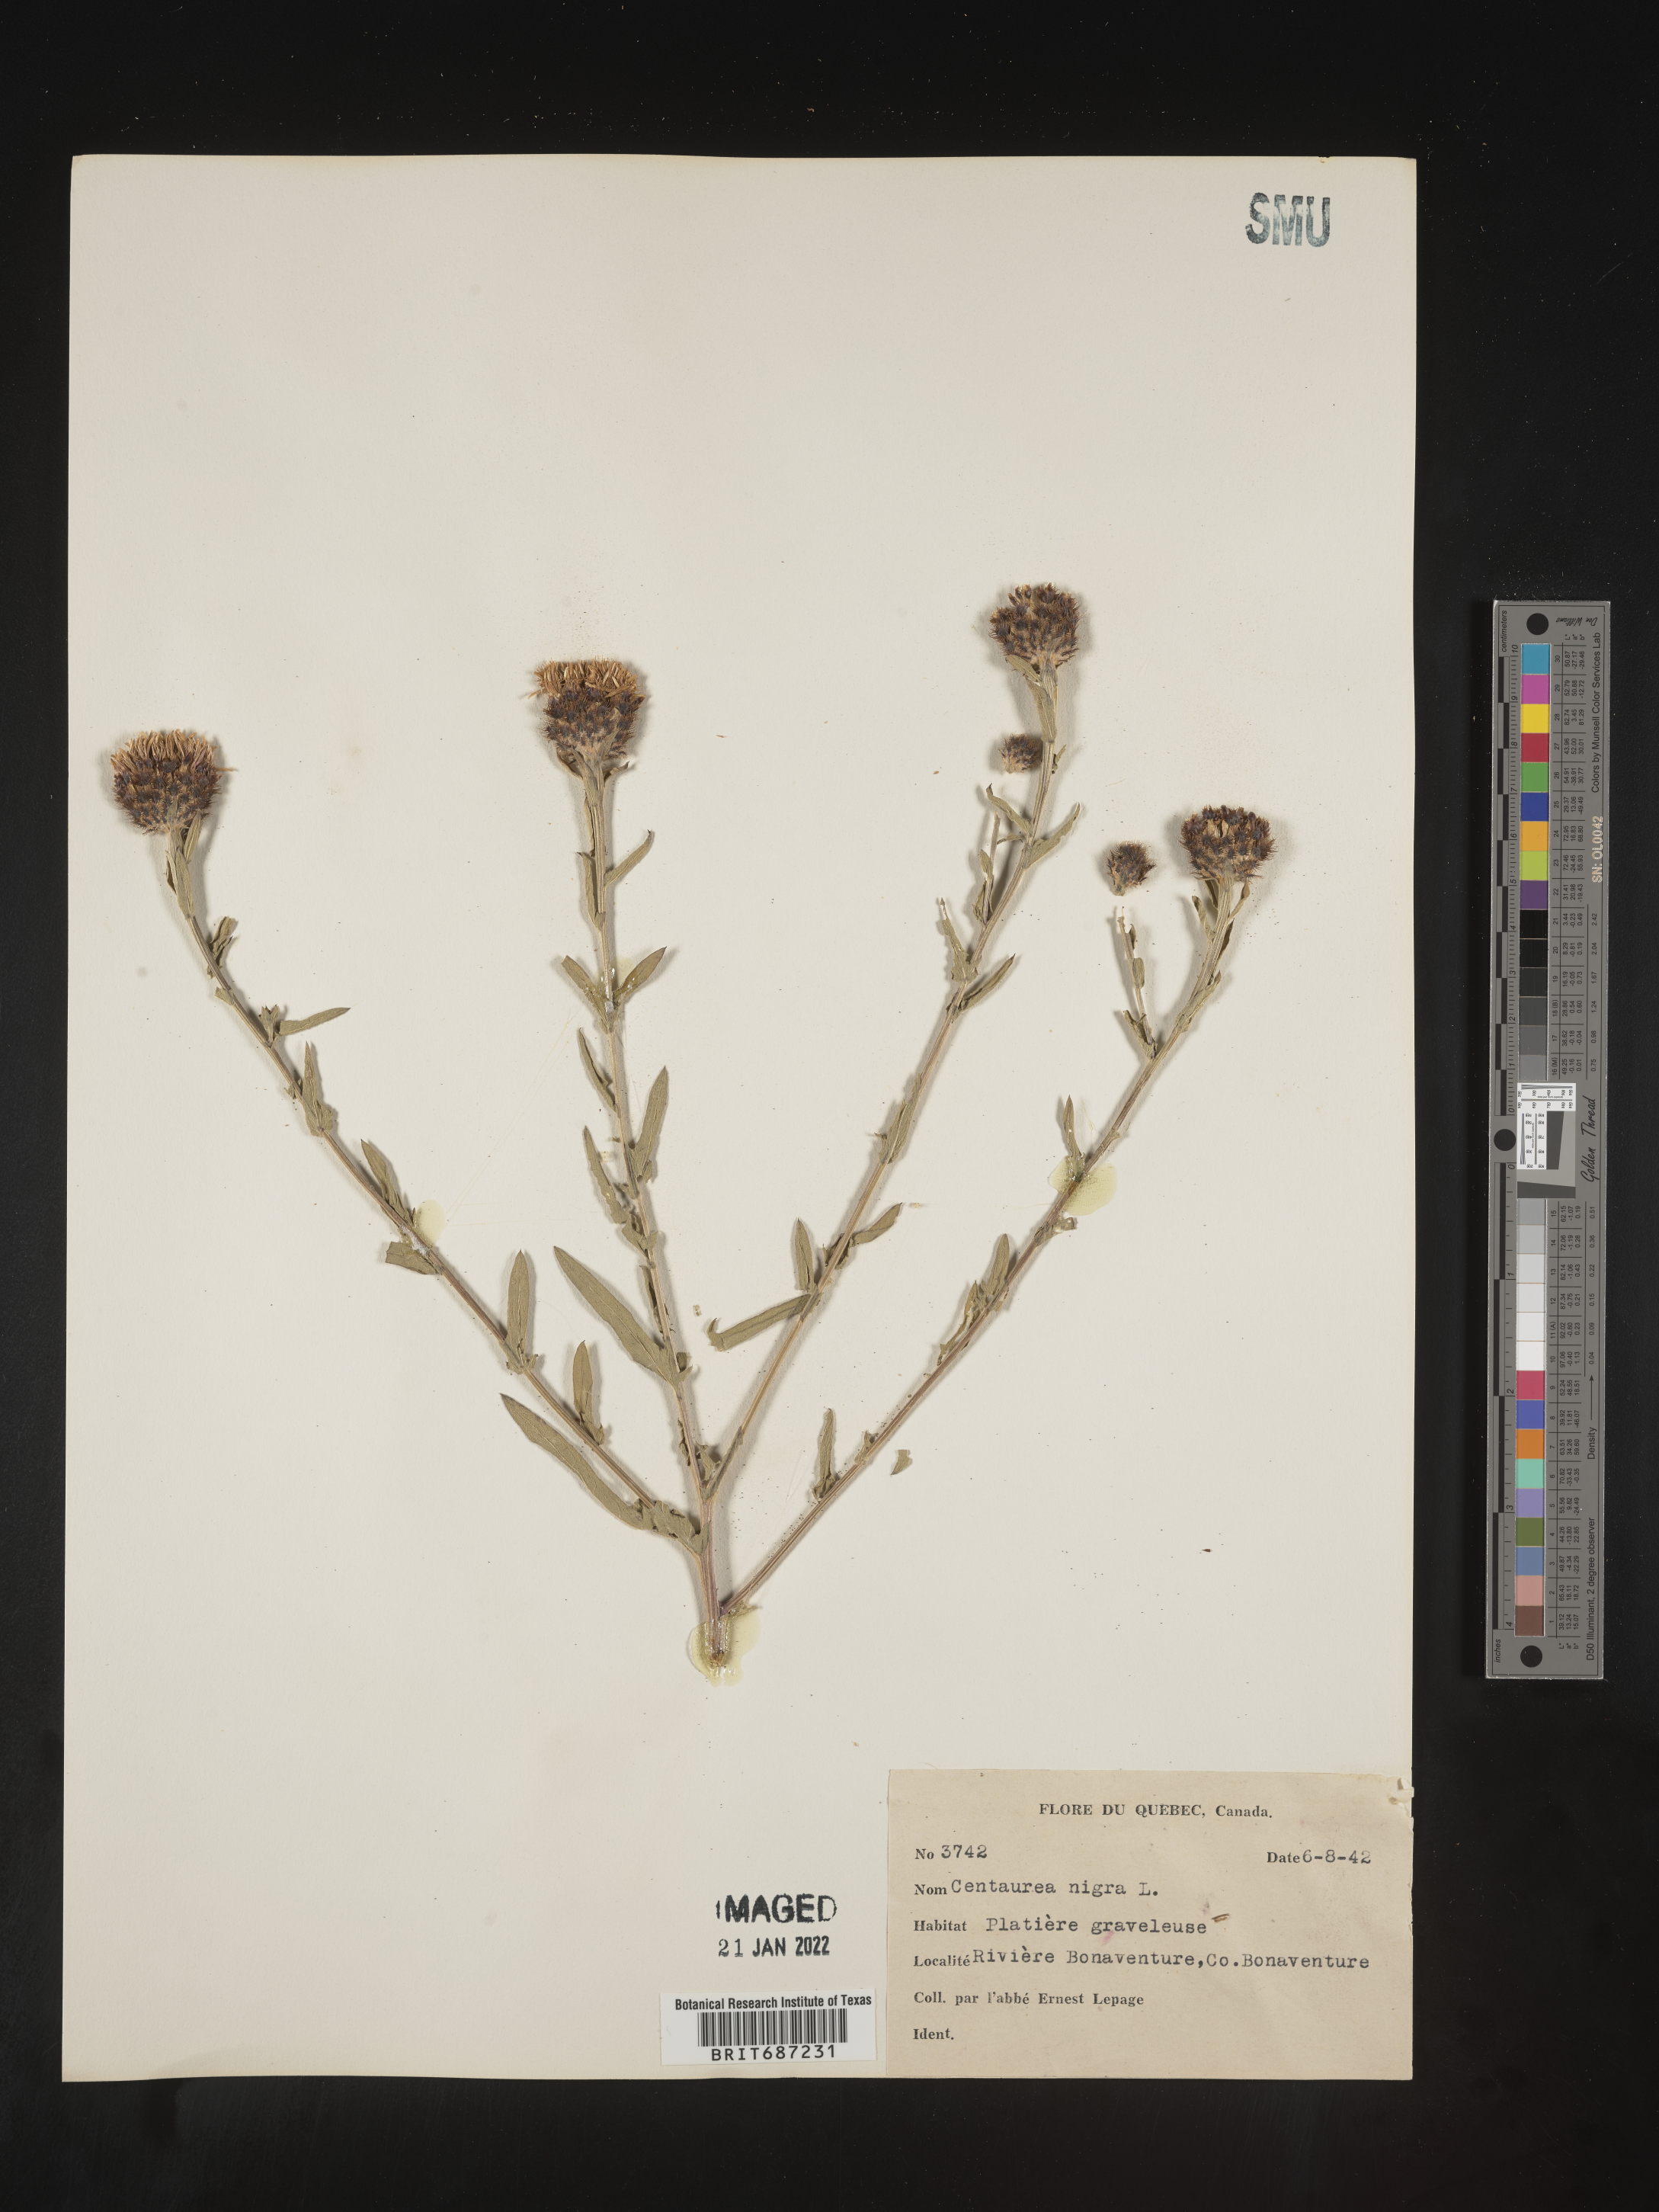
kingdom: Plantae
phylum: Tracheophyta
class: Magnoliopsida
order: Asterales
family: Asteraceae
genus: Centaurea
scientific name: Centaurea nigra
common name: Lesser knapweed
